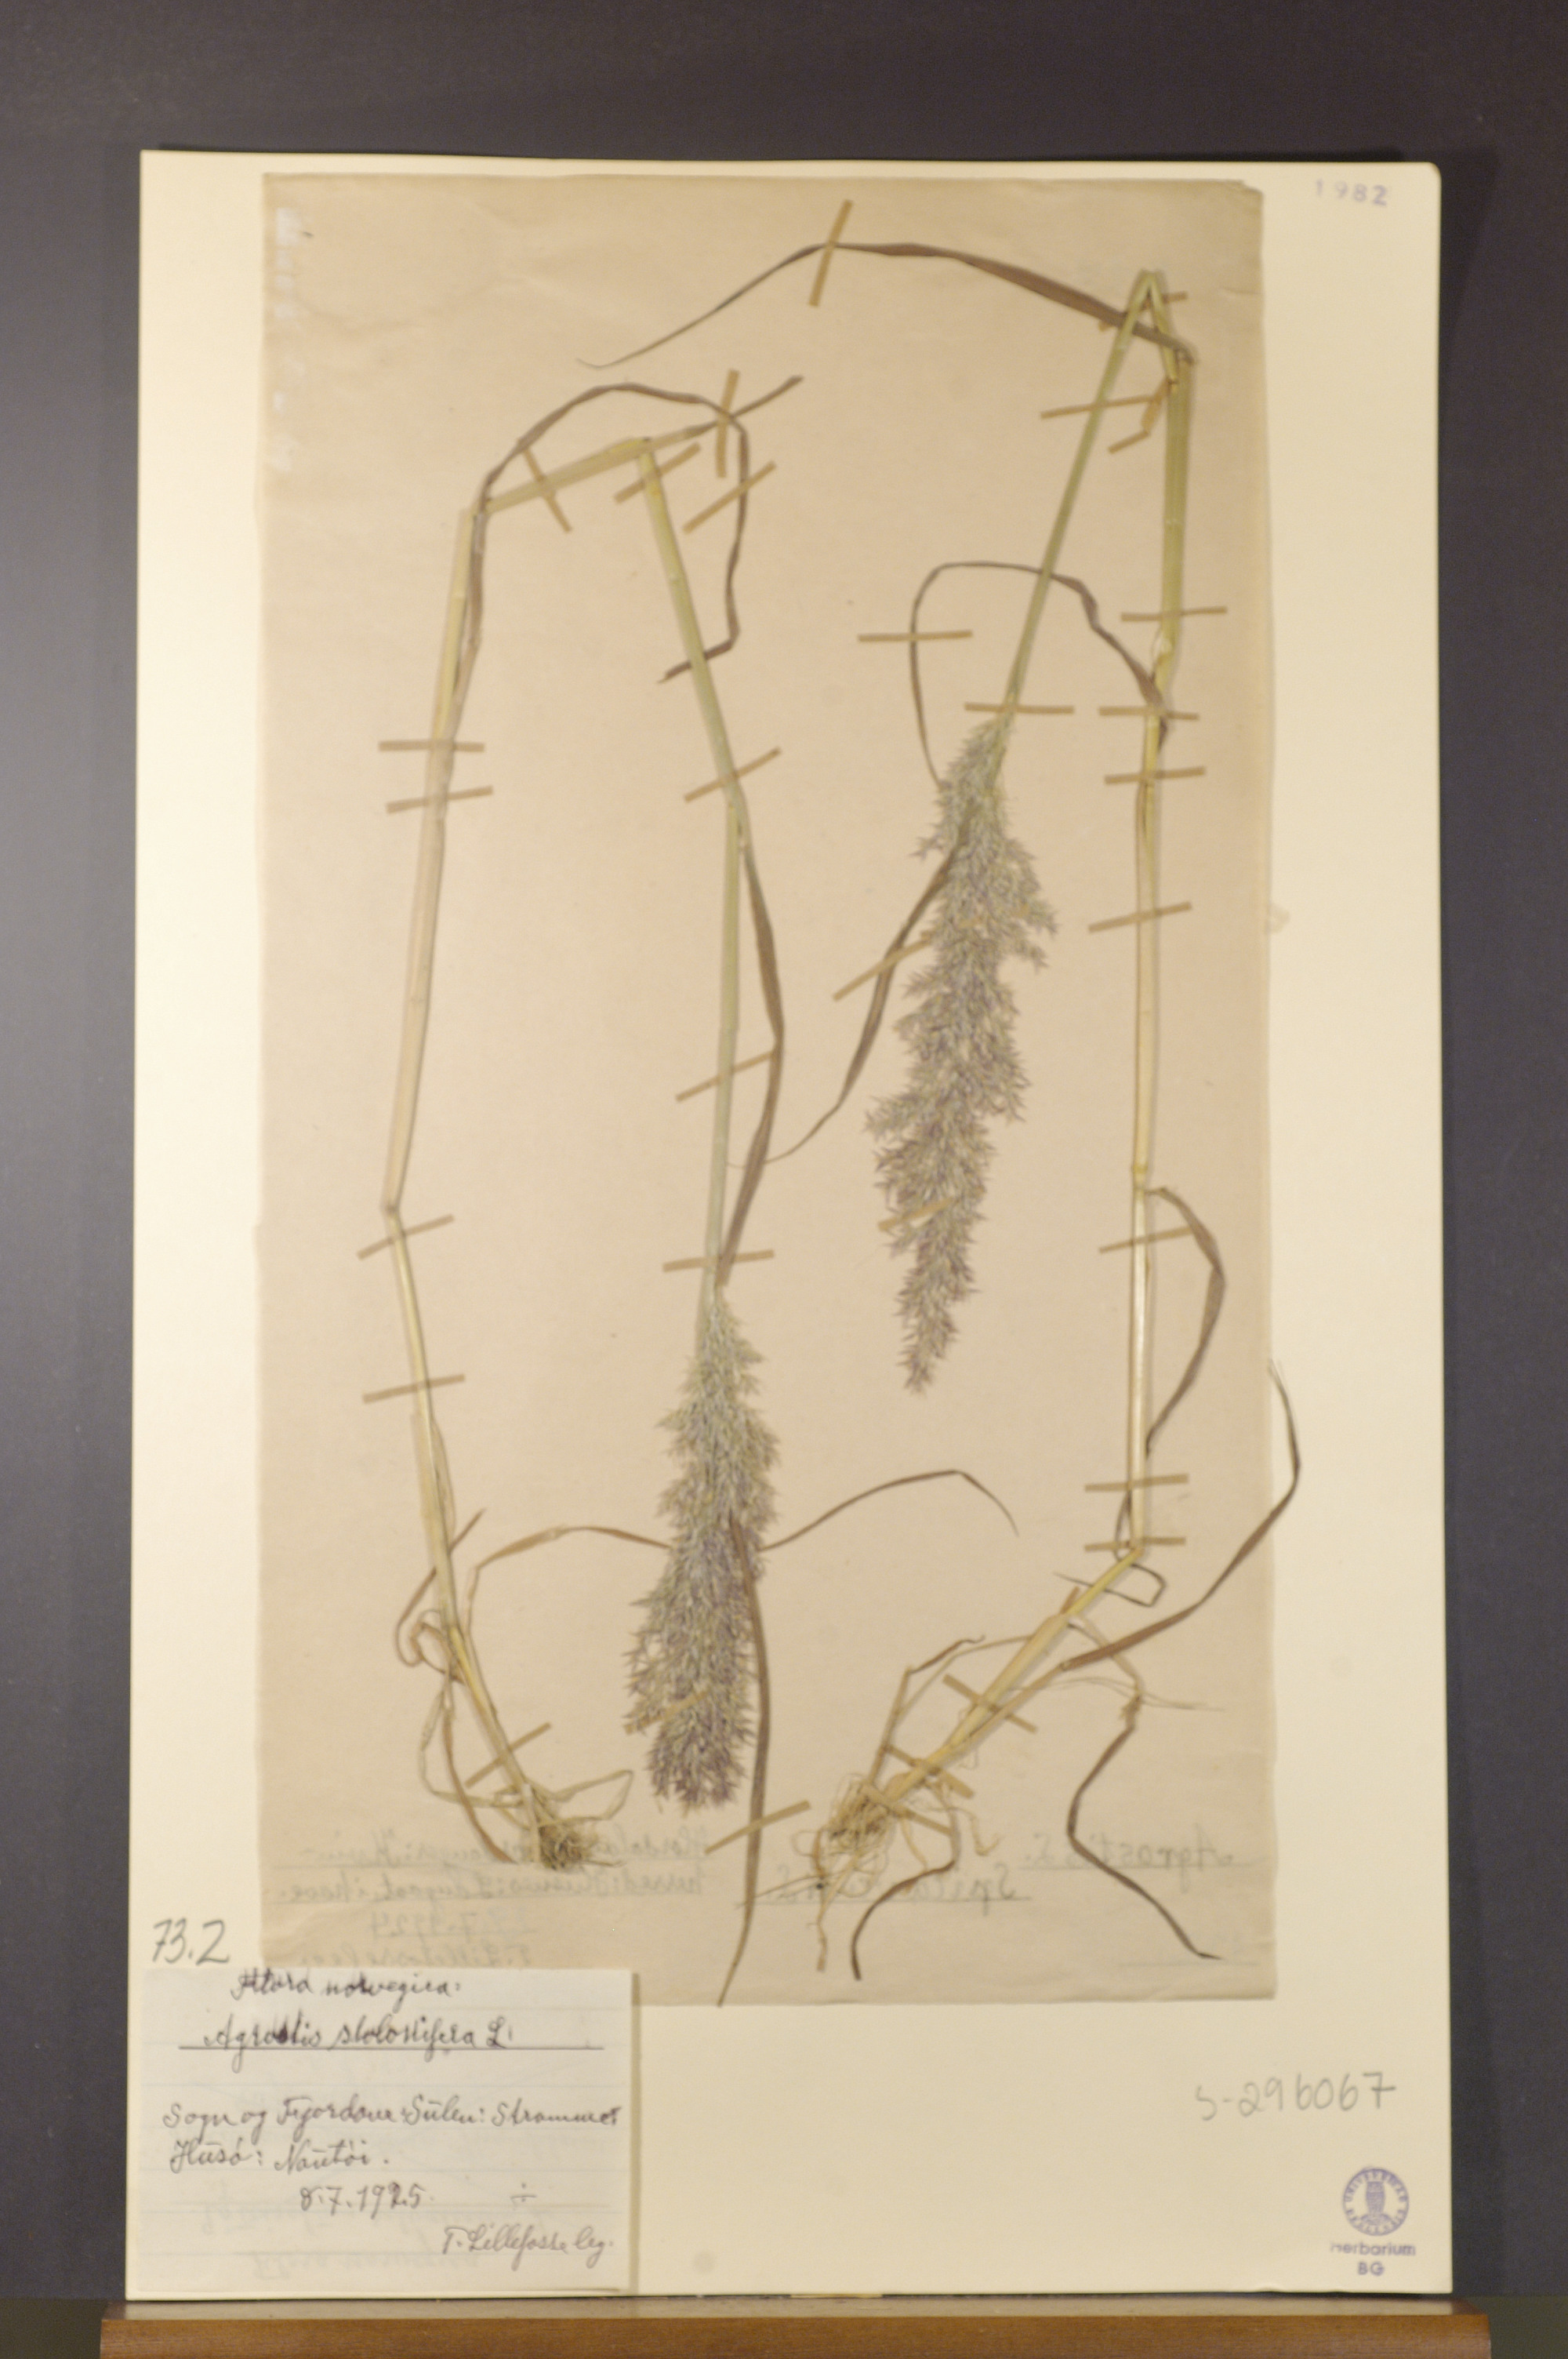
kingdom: Plantae
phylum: Tracheophyta
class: Liliopsida
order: Poales
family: Poaceae
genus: Agrostis
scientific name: Agrostis stolonifera
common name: Creeping bentgrass
